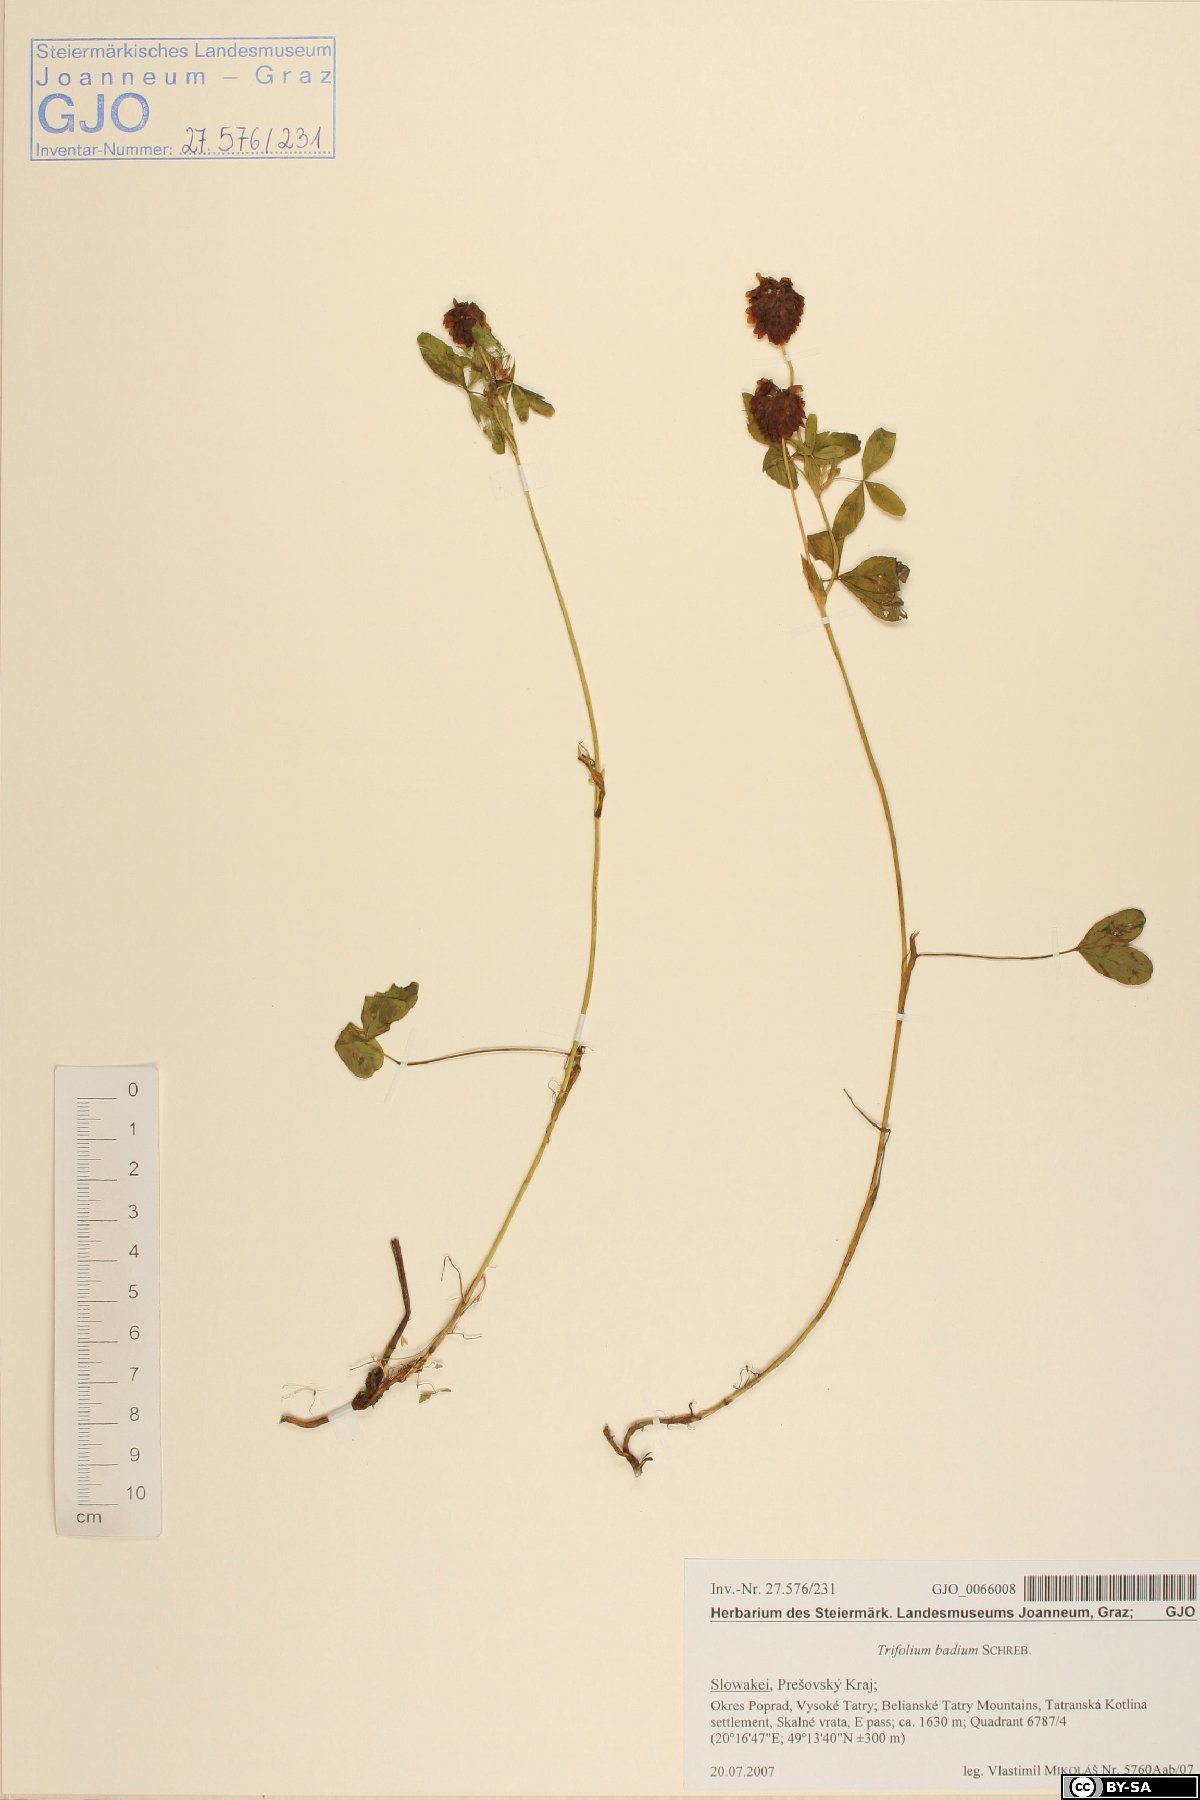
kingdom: Plantae
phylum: Tracheophyta
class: Magnoliopsida
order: Fabales
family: Fabaceae
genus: Trifolium
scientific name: Trifolium badium
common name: Brown clover
